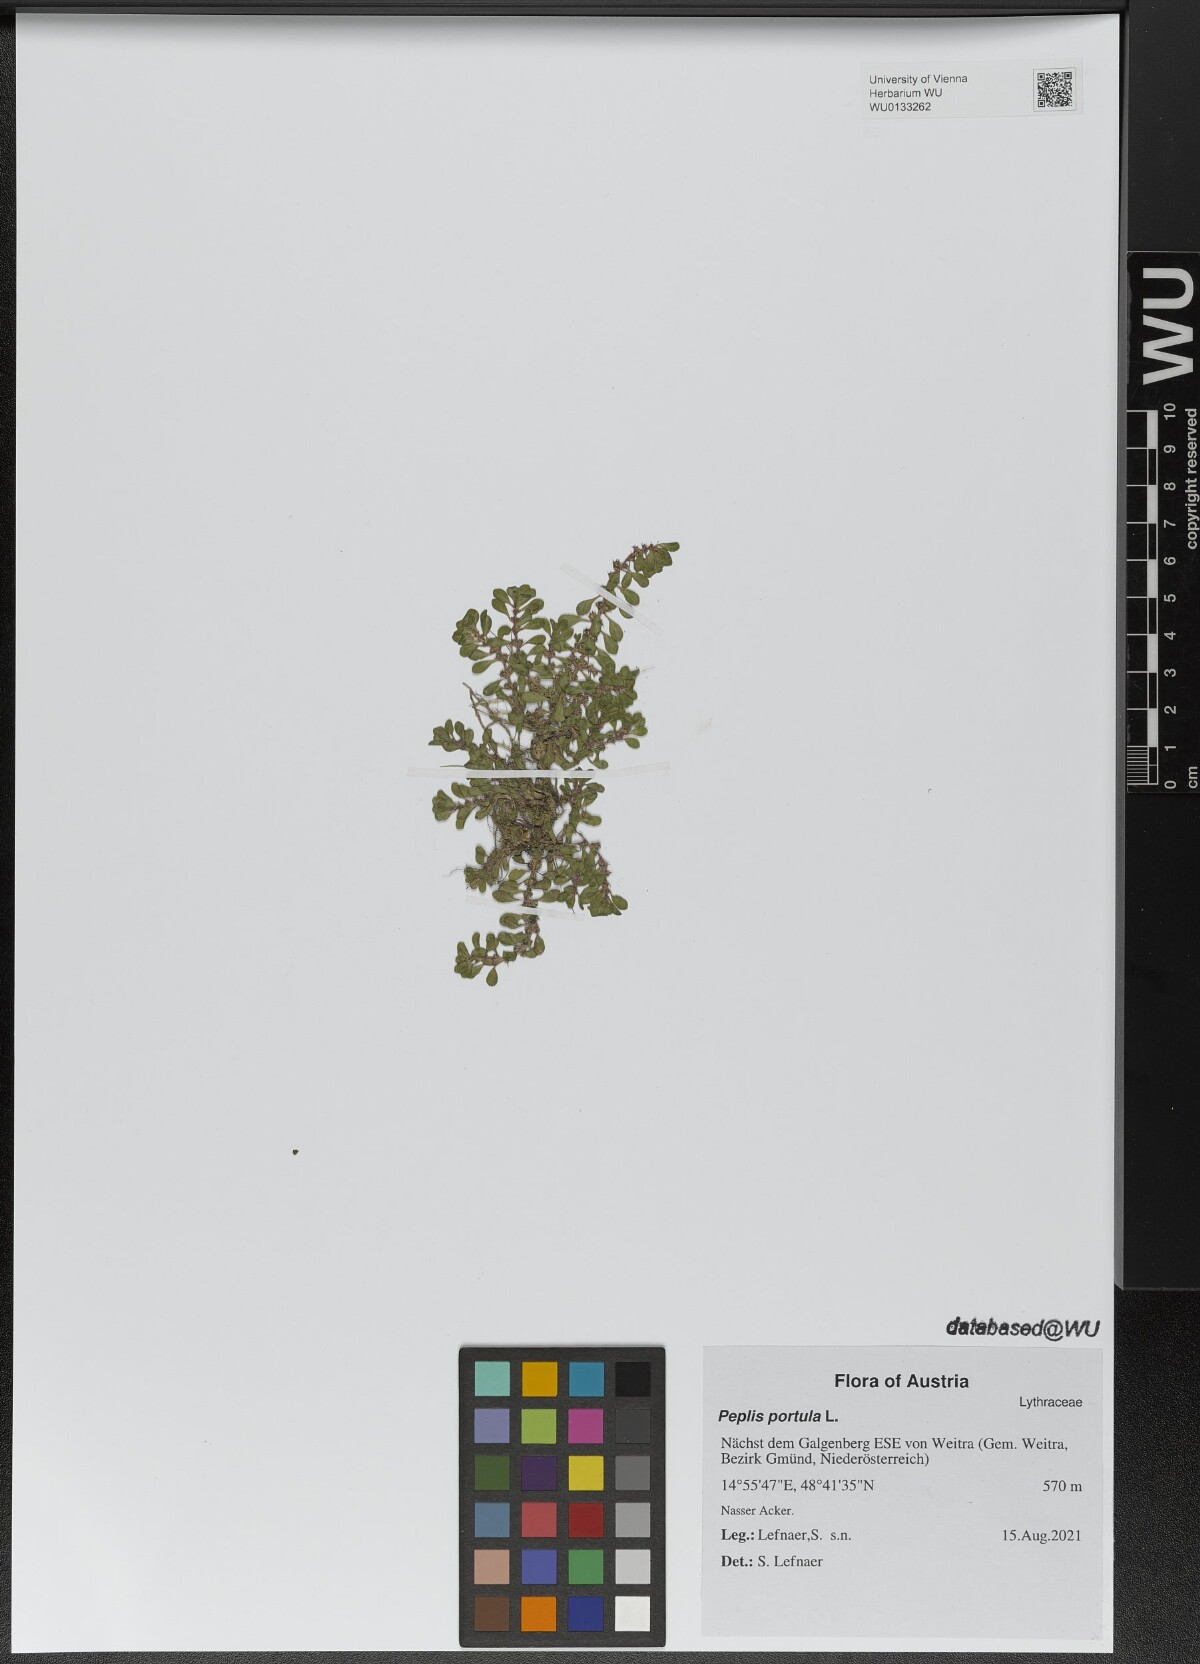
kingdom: Plantae
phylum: Tracheophyta
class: Magnoliopsida
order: Myrtales
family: Lythraceae
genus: Lythrum
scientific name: Lythrum portula
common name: Water purslane
